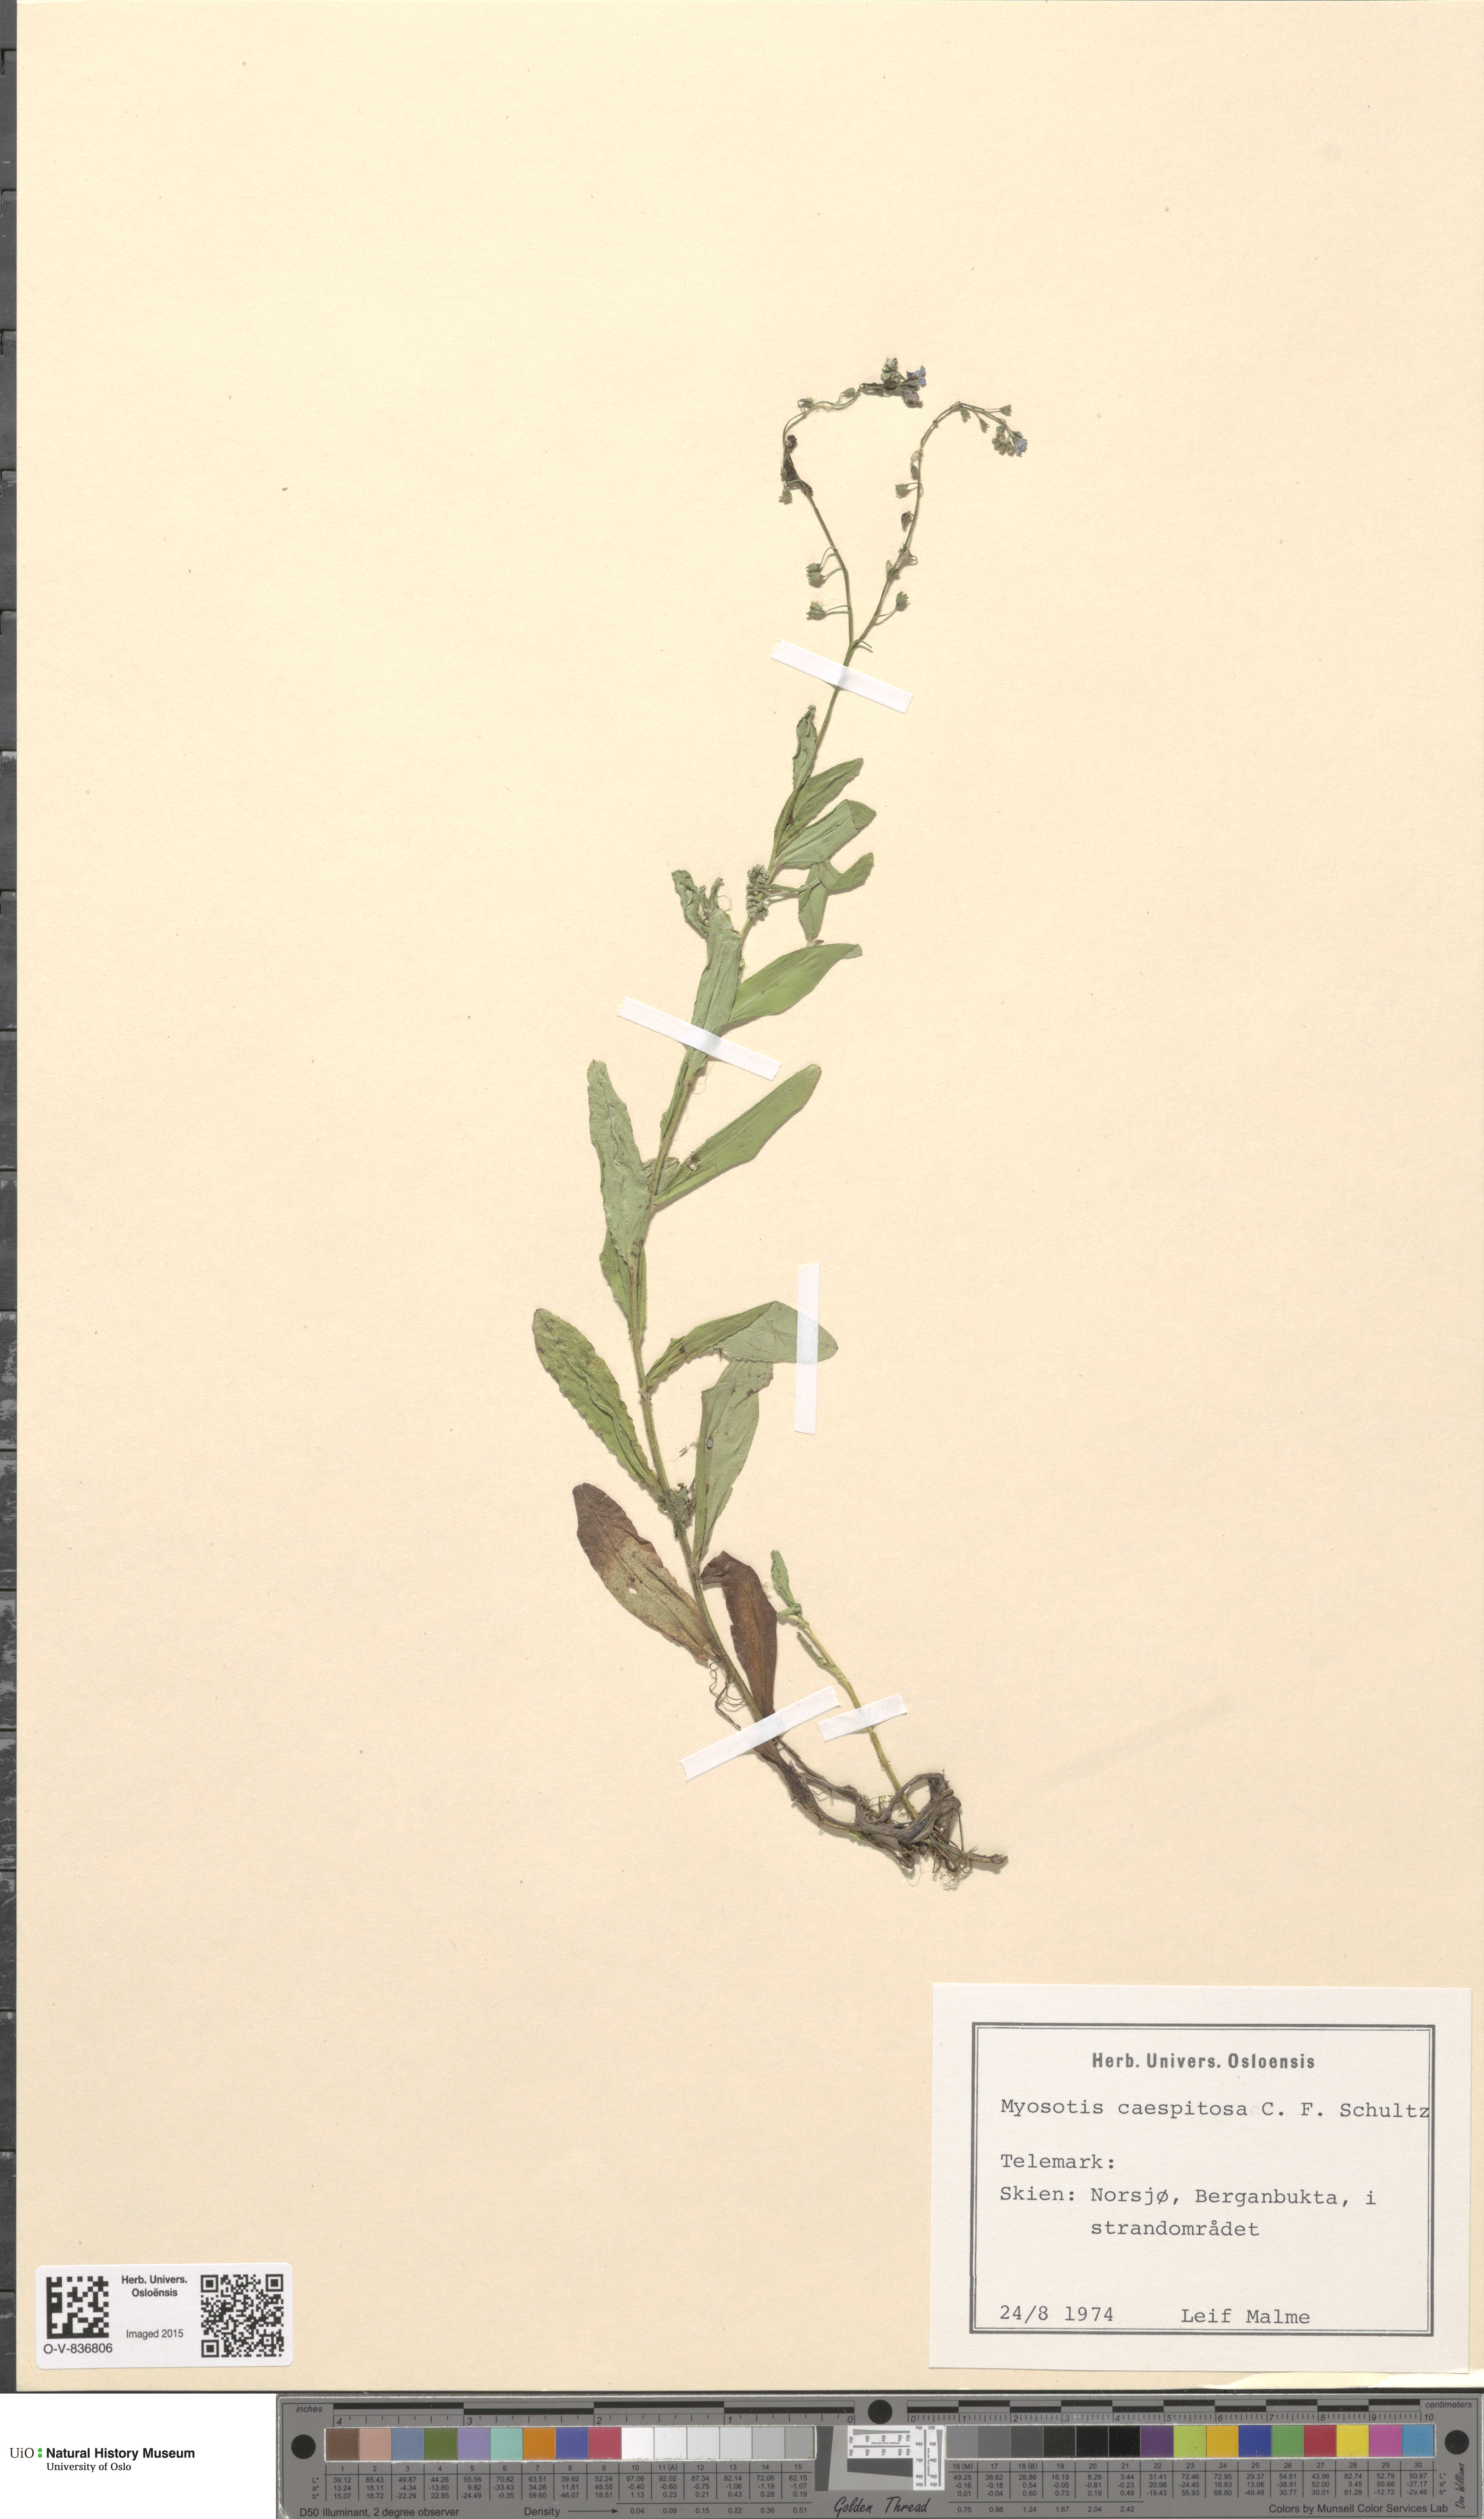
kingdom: Plantae
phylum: Tracheophyta
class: Magnoliopsida
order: Boraginales
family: Boraginaceae
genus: Myosotis
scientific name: Myosotis laxa
